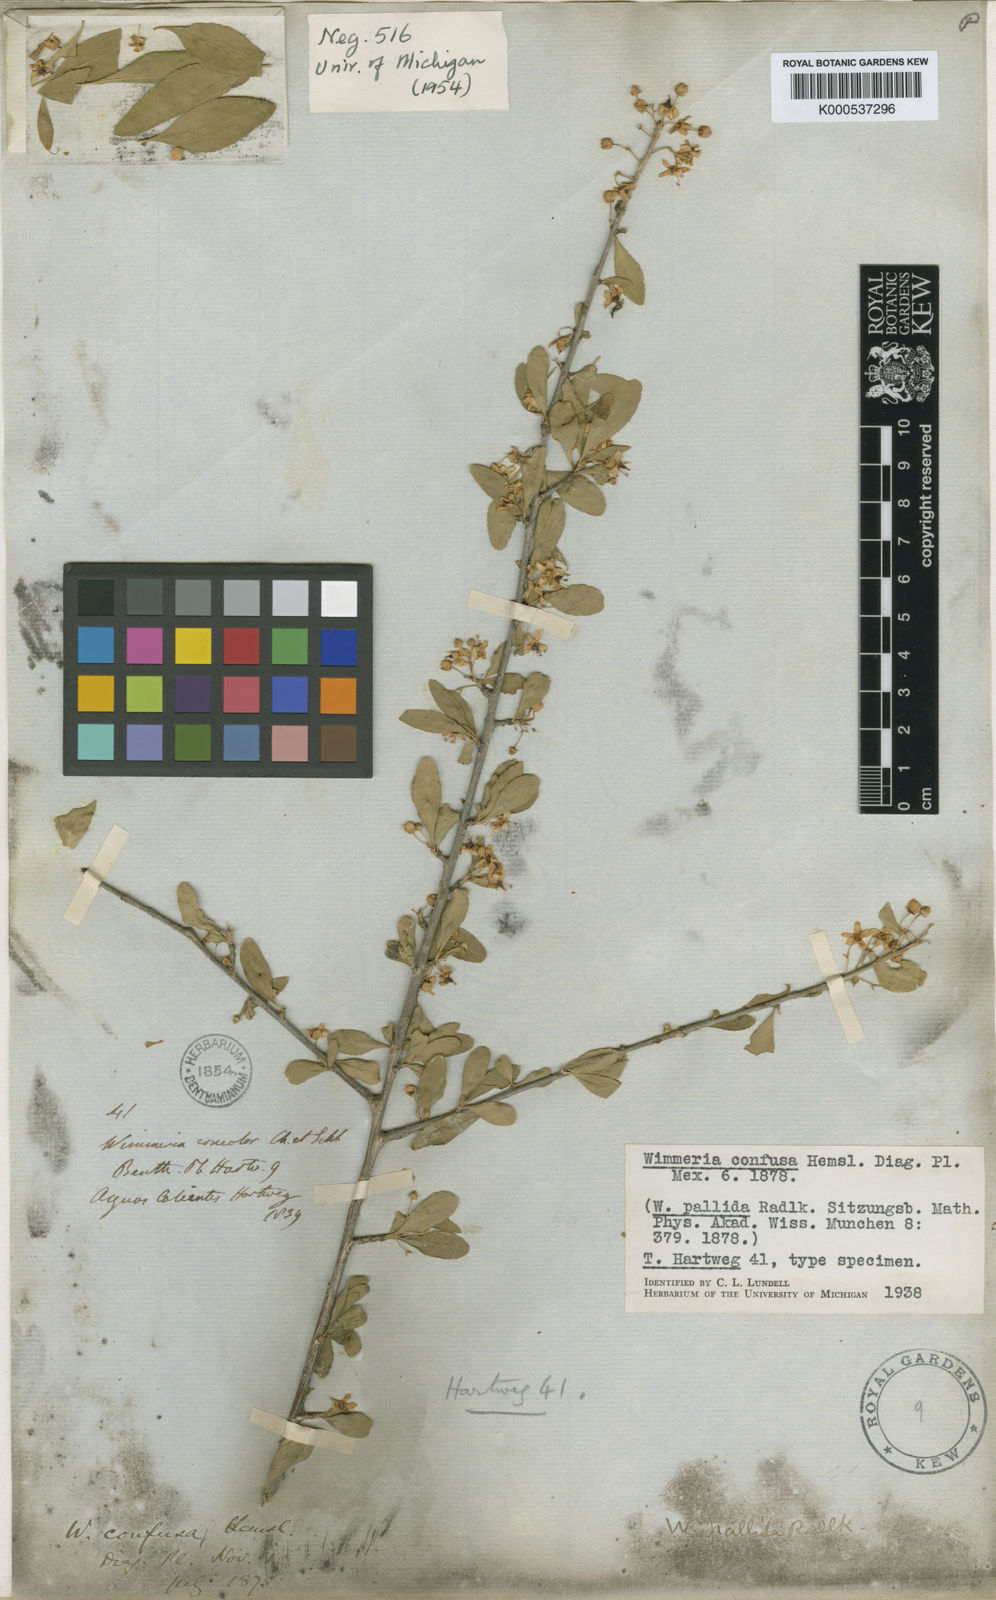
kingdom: Plantae
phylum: Tracheophyta
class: Magnoliopsida
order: Celastrales
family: Celastraceae
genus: Wimmeria
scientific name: Wimmeria mexicana
